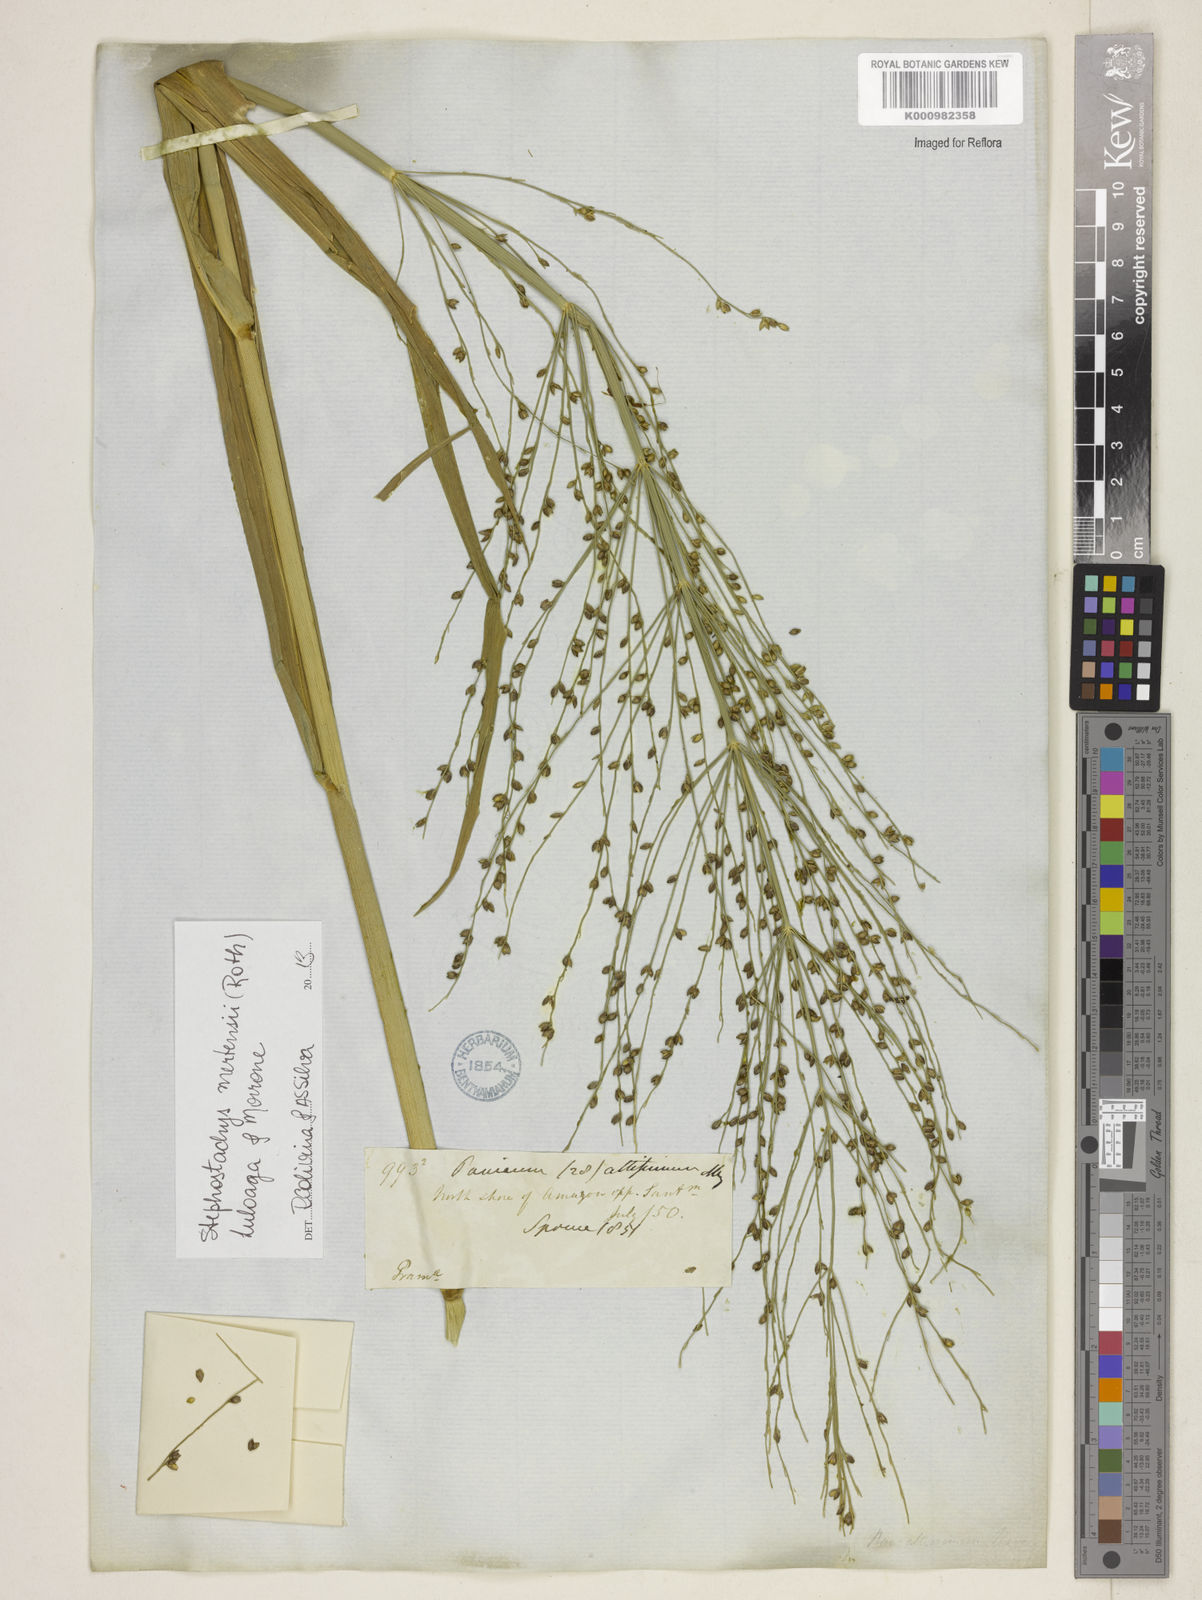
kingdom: Plantae
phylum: Tracheophyta
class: Liliopsida
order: Poales
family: Poaceae
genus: Stephostachys
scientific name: Stephostachys mertensii
